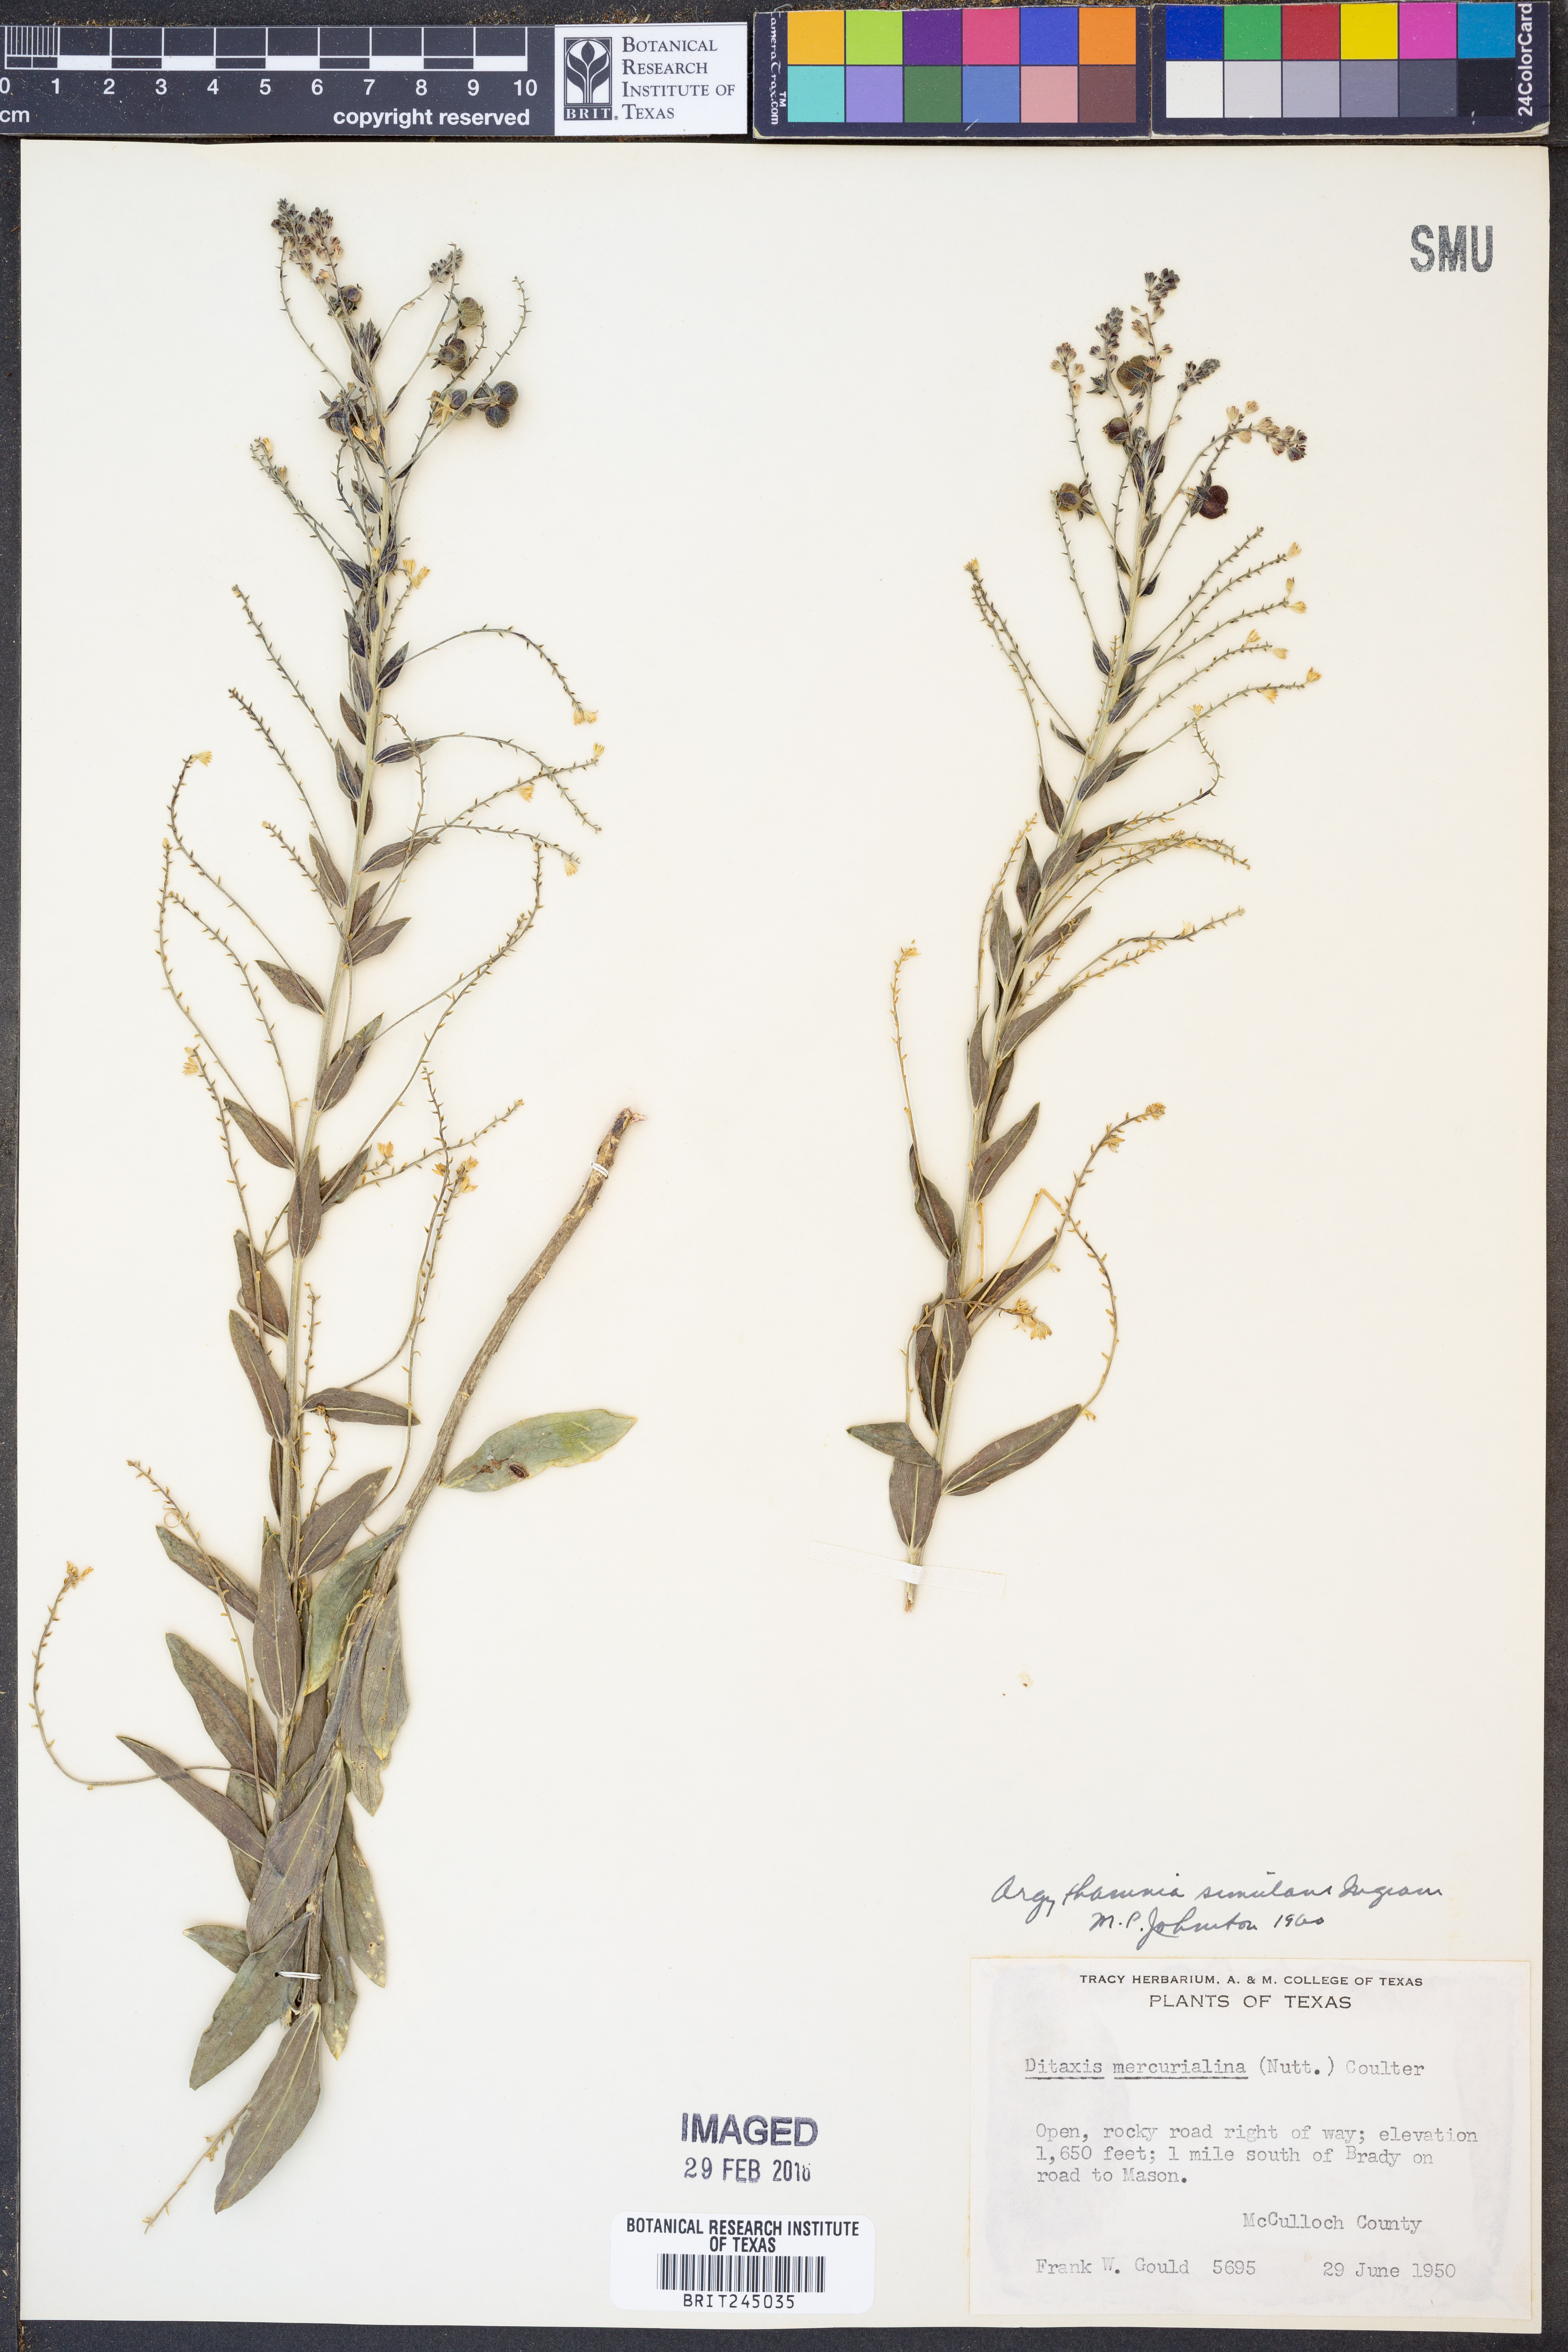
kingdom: Plantae
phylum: Tracheophyta
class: Magnoliopsida
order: Malpighiales
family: Euphorbiaceae
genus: Ditaxis
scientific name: Ditaxis simulans
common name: Plateau silverbush
